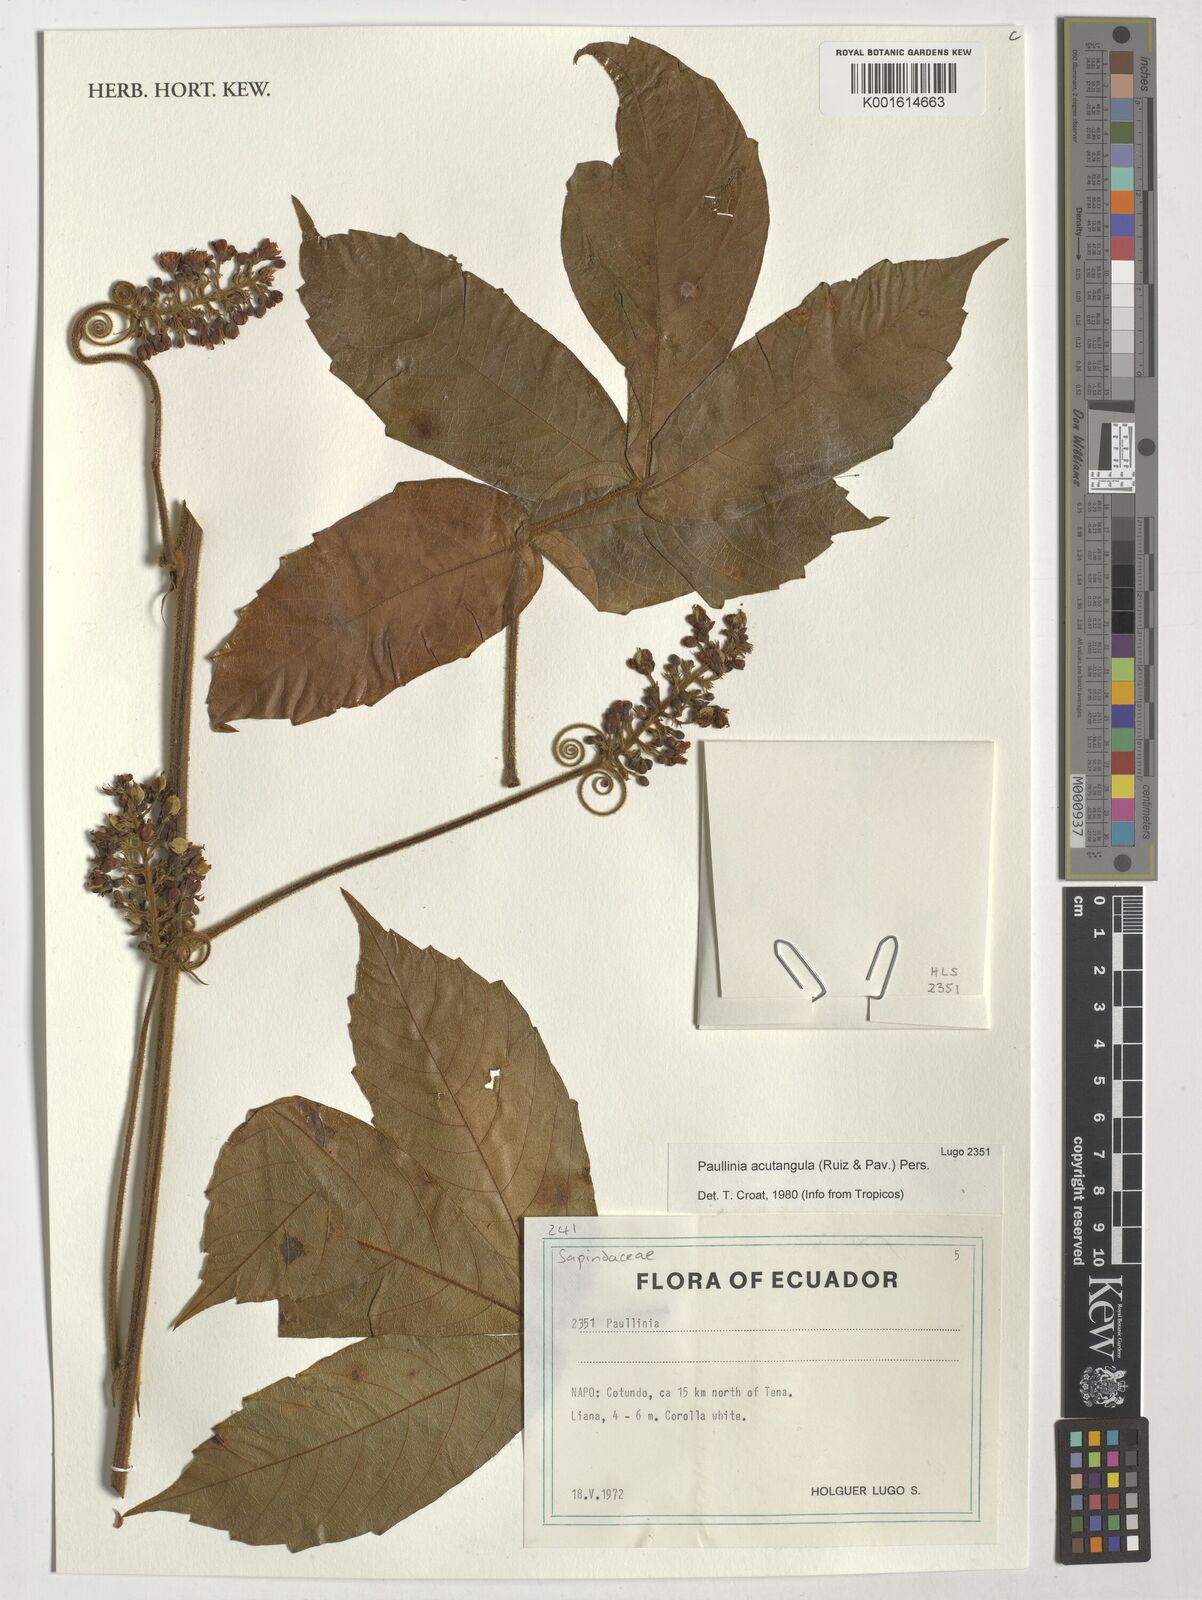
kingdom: Plantae
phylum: Tracheophyta
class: Magnoliopsida
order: Sapindales
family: Sapindaceae
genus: Paullinia
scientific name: Paullinia acutangula
